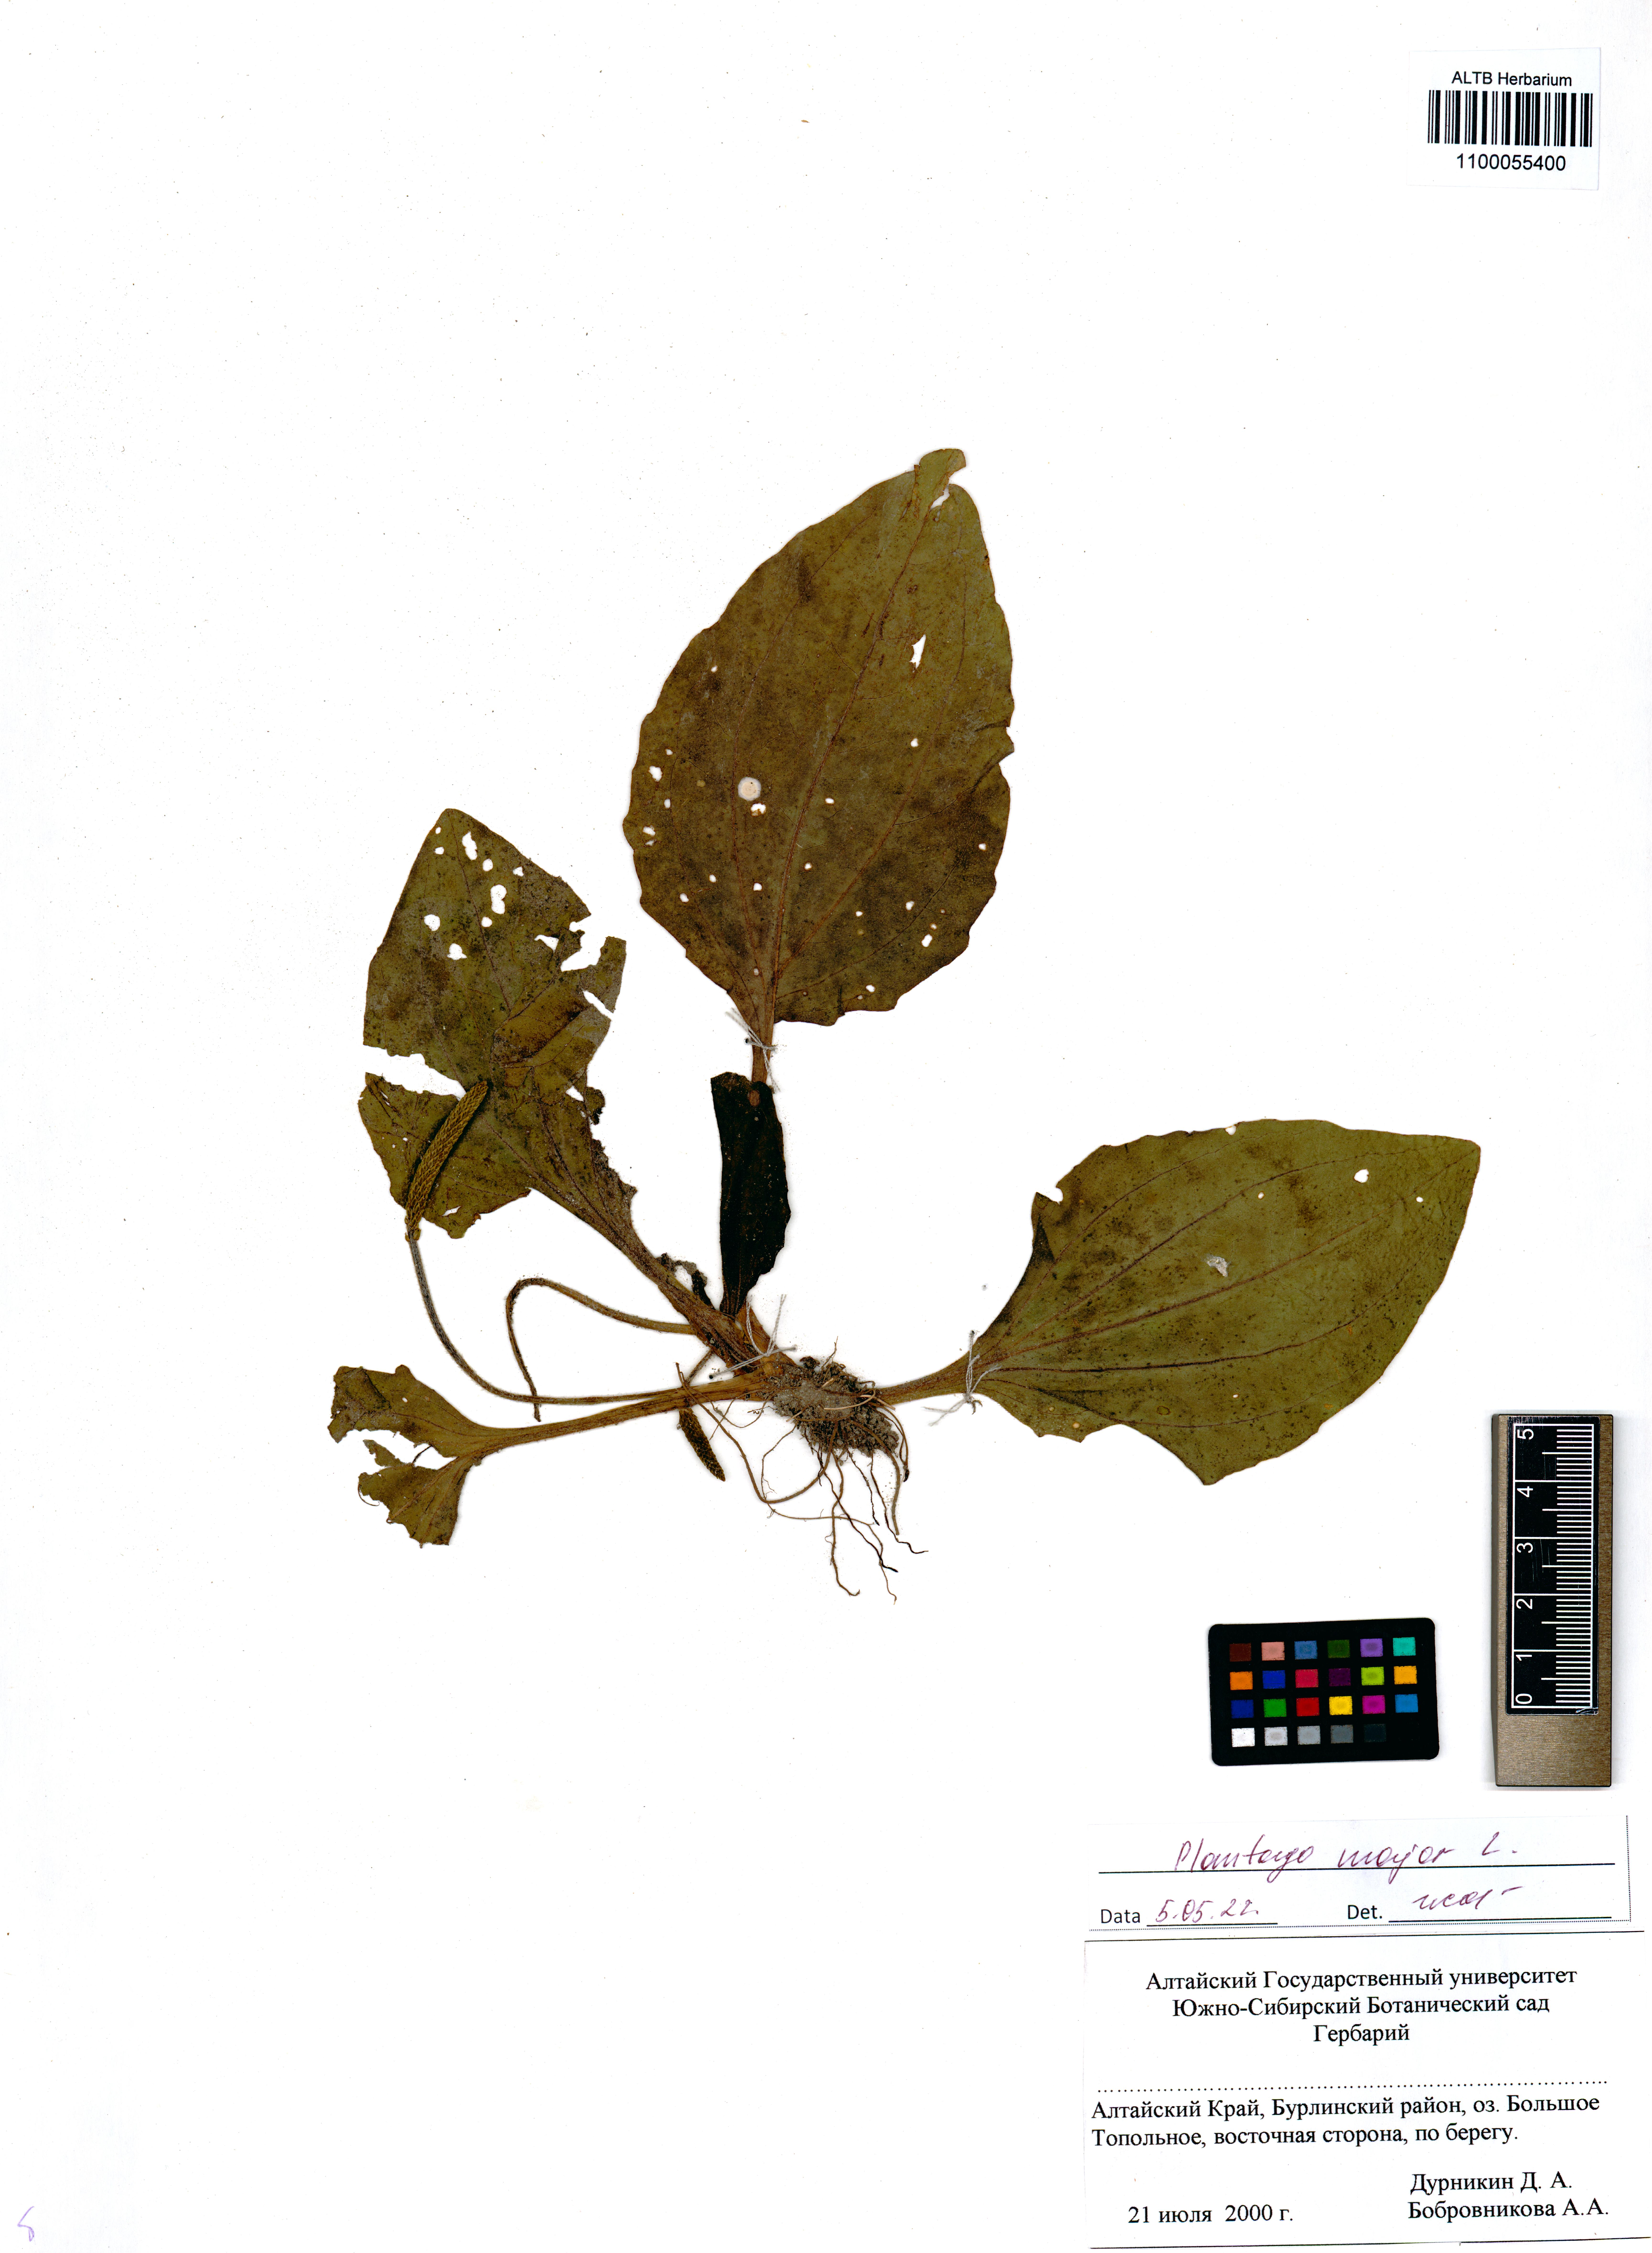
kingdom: Plantae
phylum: Tracheophyta
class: Magnoliopsida
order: Lamiales
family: Plantaginaceae
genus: Plantago
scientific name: Plantago major
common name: Common plantain
